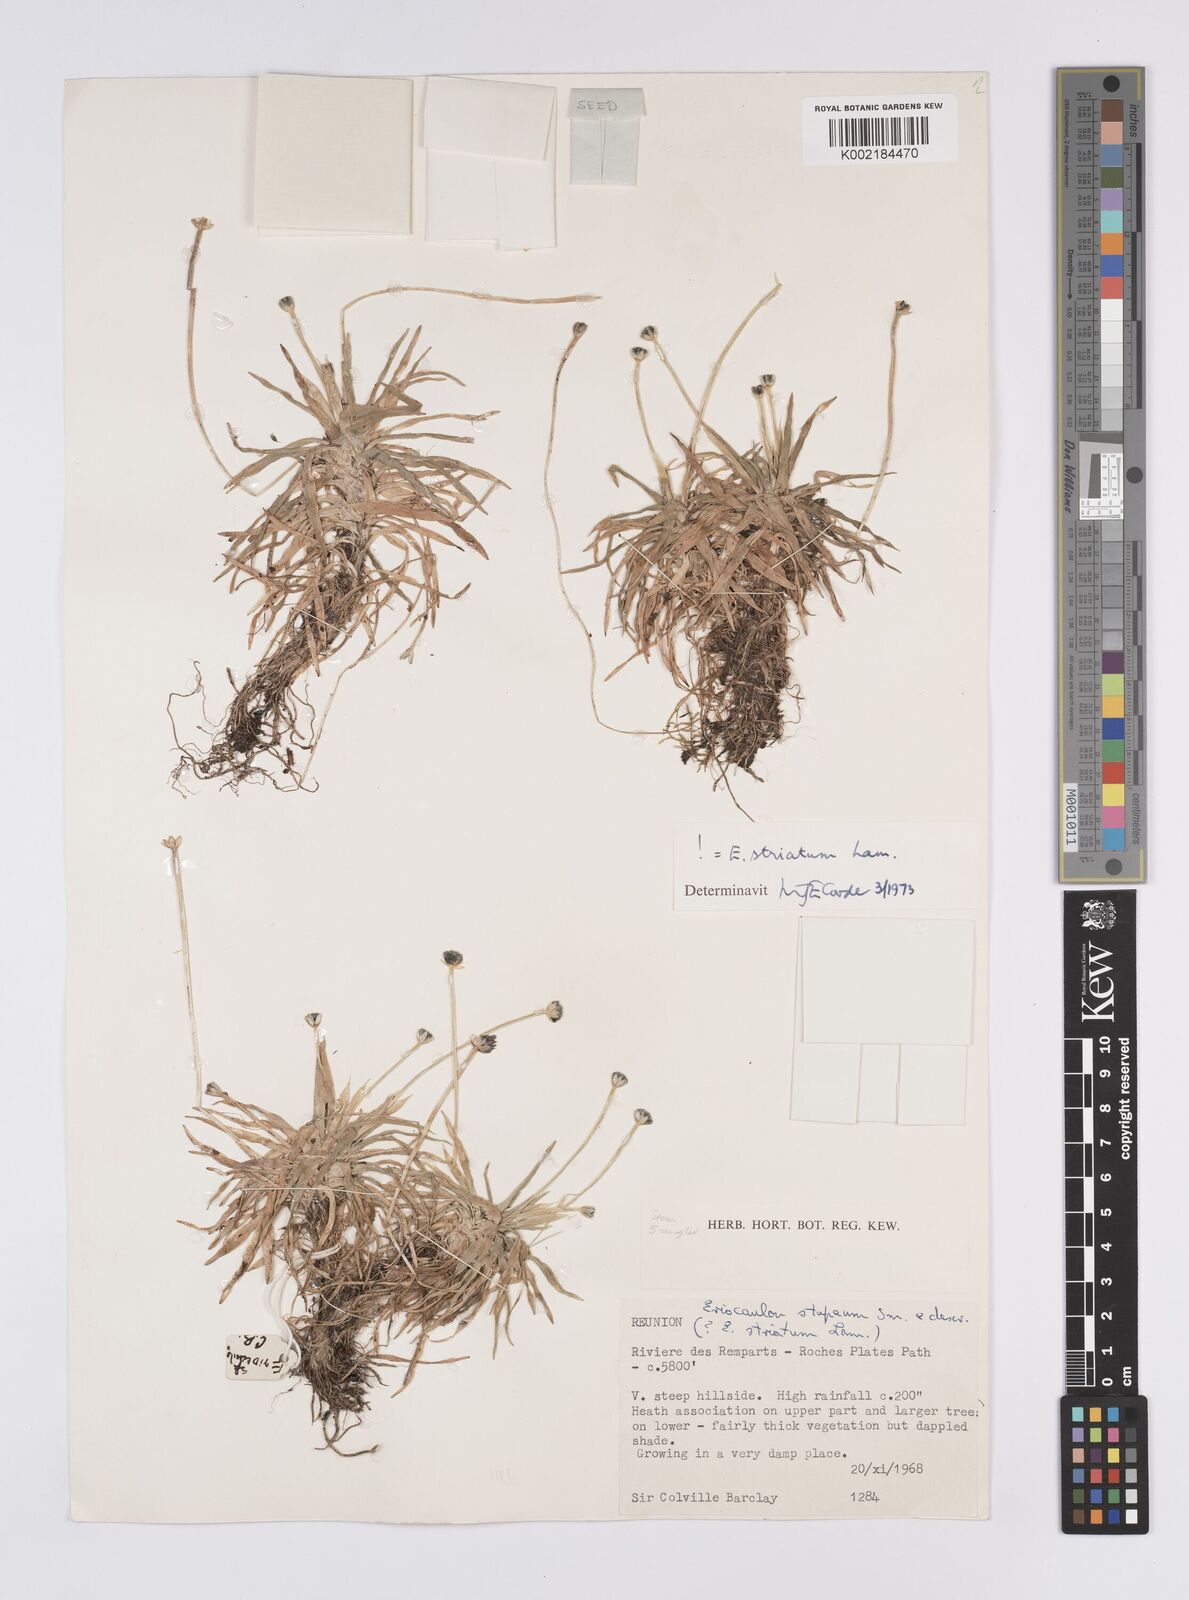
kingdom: Plantae
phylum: Tracheophyta
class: Liliopsida
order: Poales
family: Eriocaulaceae
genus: Eriocaulon
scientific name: Eriocaulon striatum
